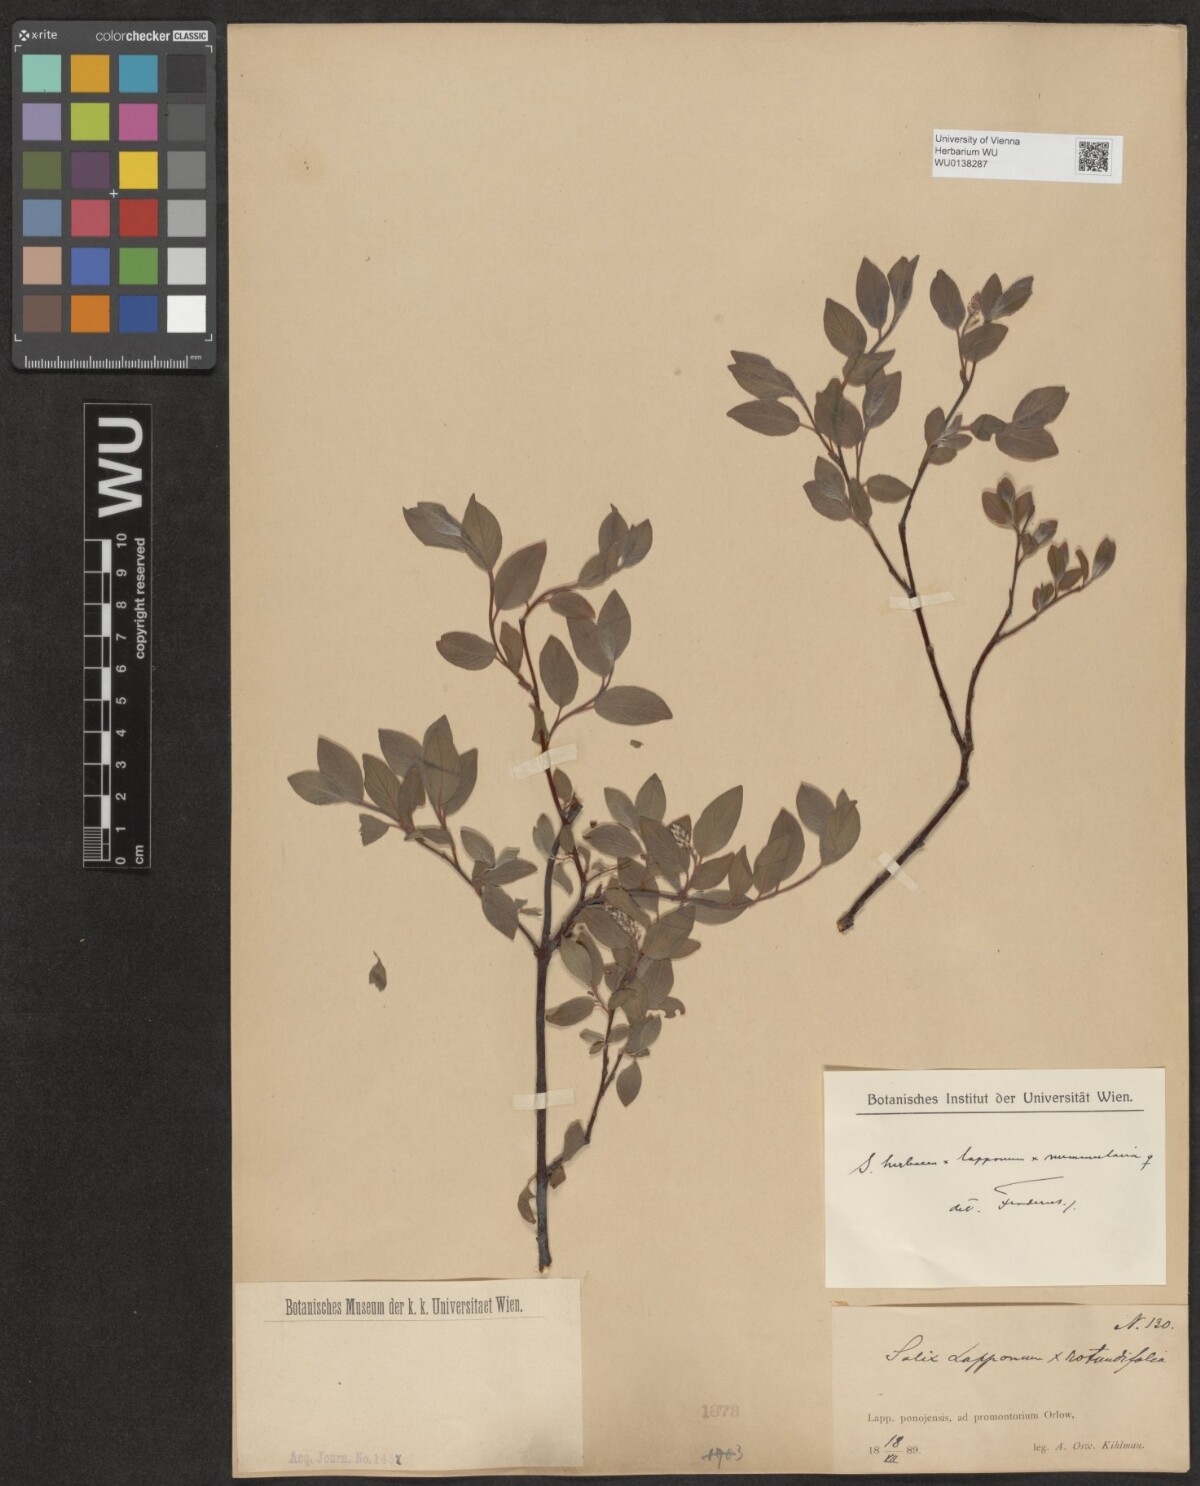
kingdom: Plantae
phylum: Tracheophyta
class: Magnoliopsida
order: Malpighiales
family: Salicaceae
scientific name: Salicaceae
